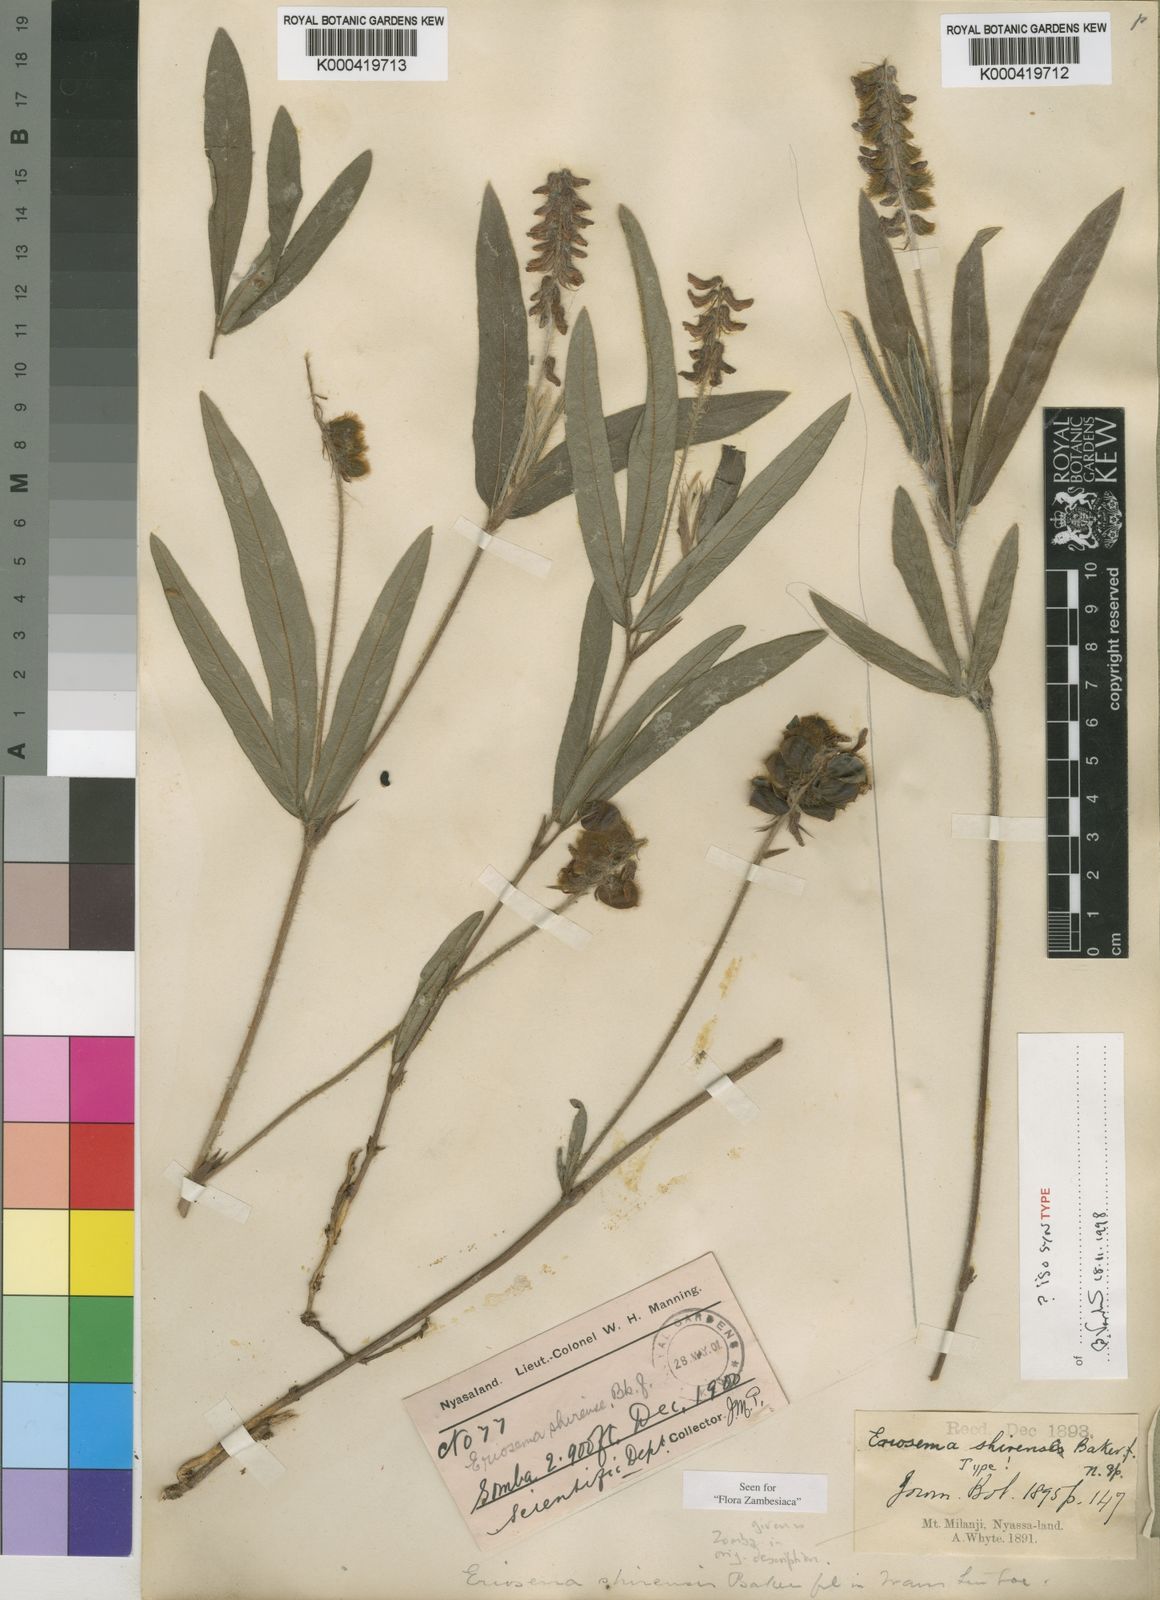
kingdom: Plantae
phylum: Tracheophyta
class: Magnoliopsida
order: Fabales
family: Fabaceae
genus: Eriosema
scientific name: Eriosema shirense
